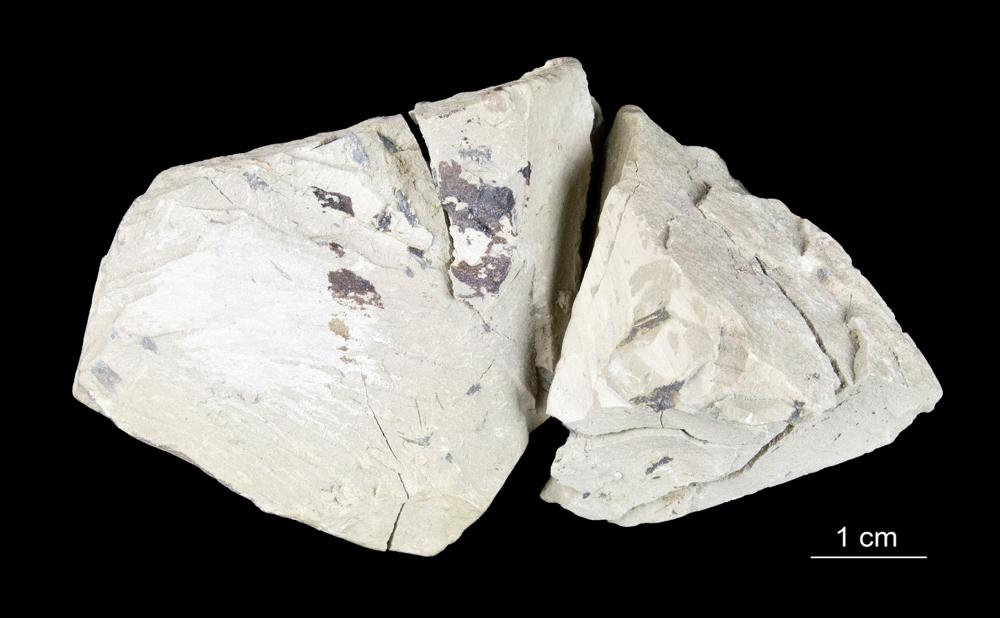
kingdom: Chromista
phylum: Foraminifera
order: Astrorhizida
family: Hyperamminidae
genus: Platysolenites
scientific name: Platysolenites antiquissimus
